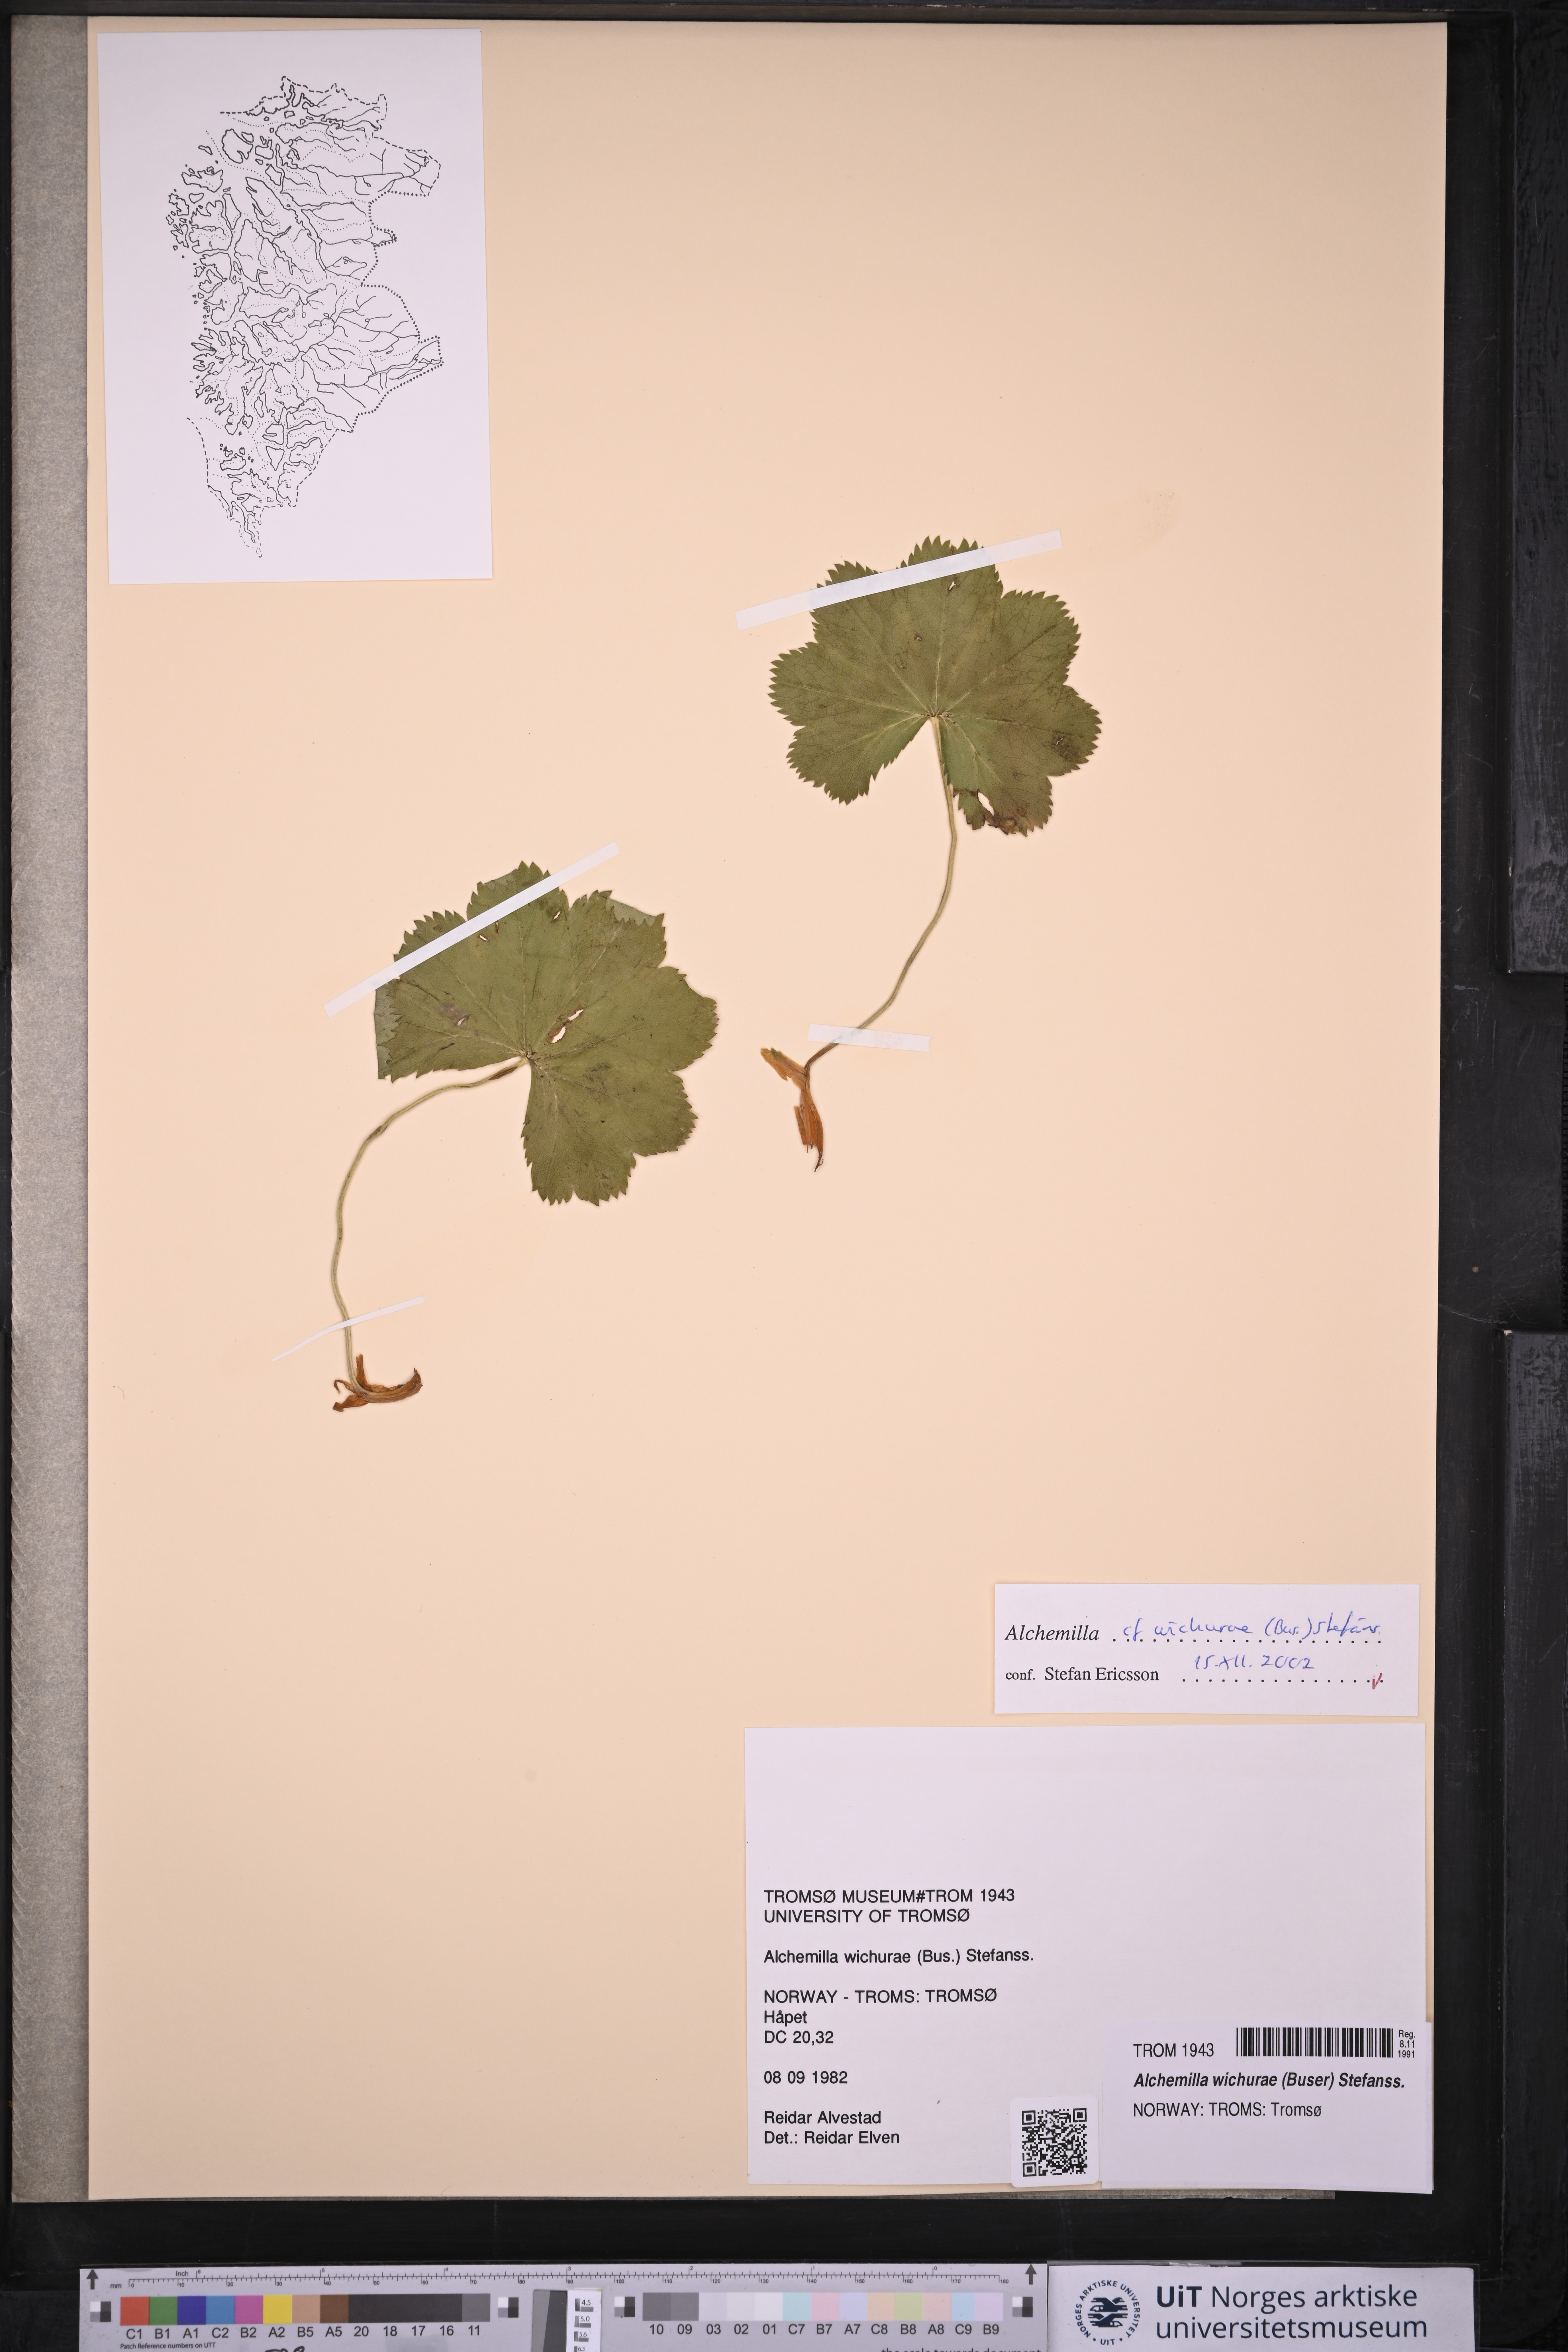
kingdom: Plantae
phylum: Tracheophyta
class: Magnoliopsida
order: Rosales
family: Rosaceae
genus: Alchemilla
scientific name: Alchemilla wichurae
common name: Rock lady's mantle
